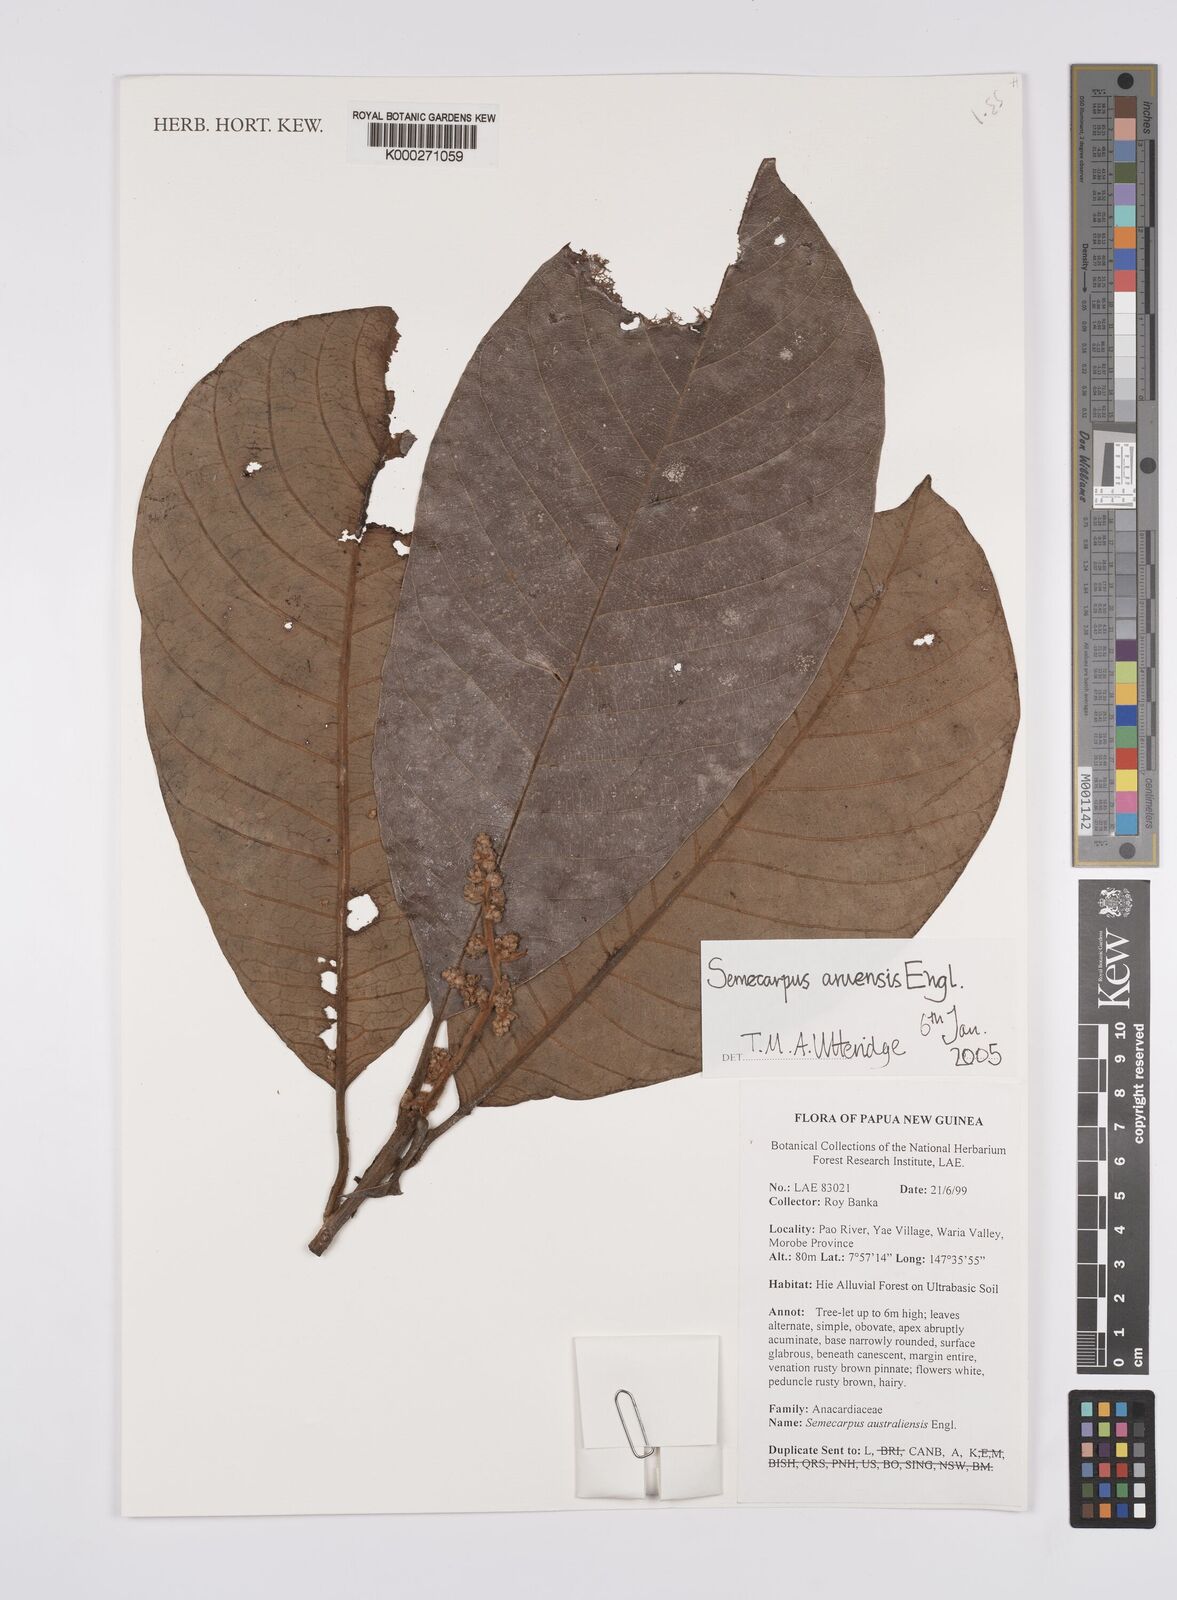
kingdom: Plantae
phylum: Tracheophyta
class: Magnoliopsida
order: Sapindales
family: Anacardiaceae
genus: Semecarpus
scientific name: Semecarpus aruensis
